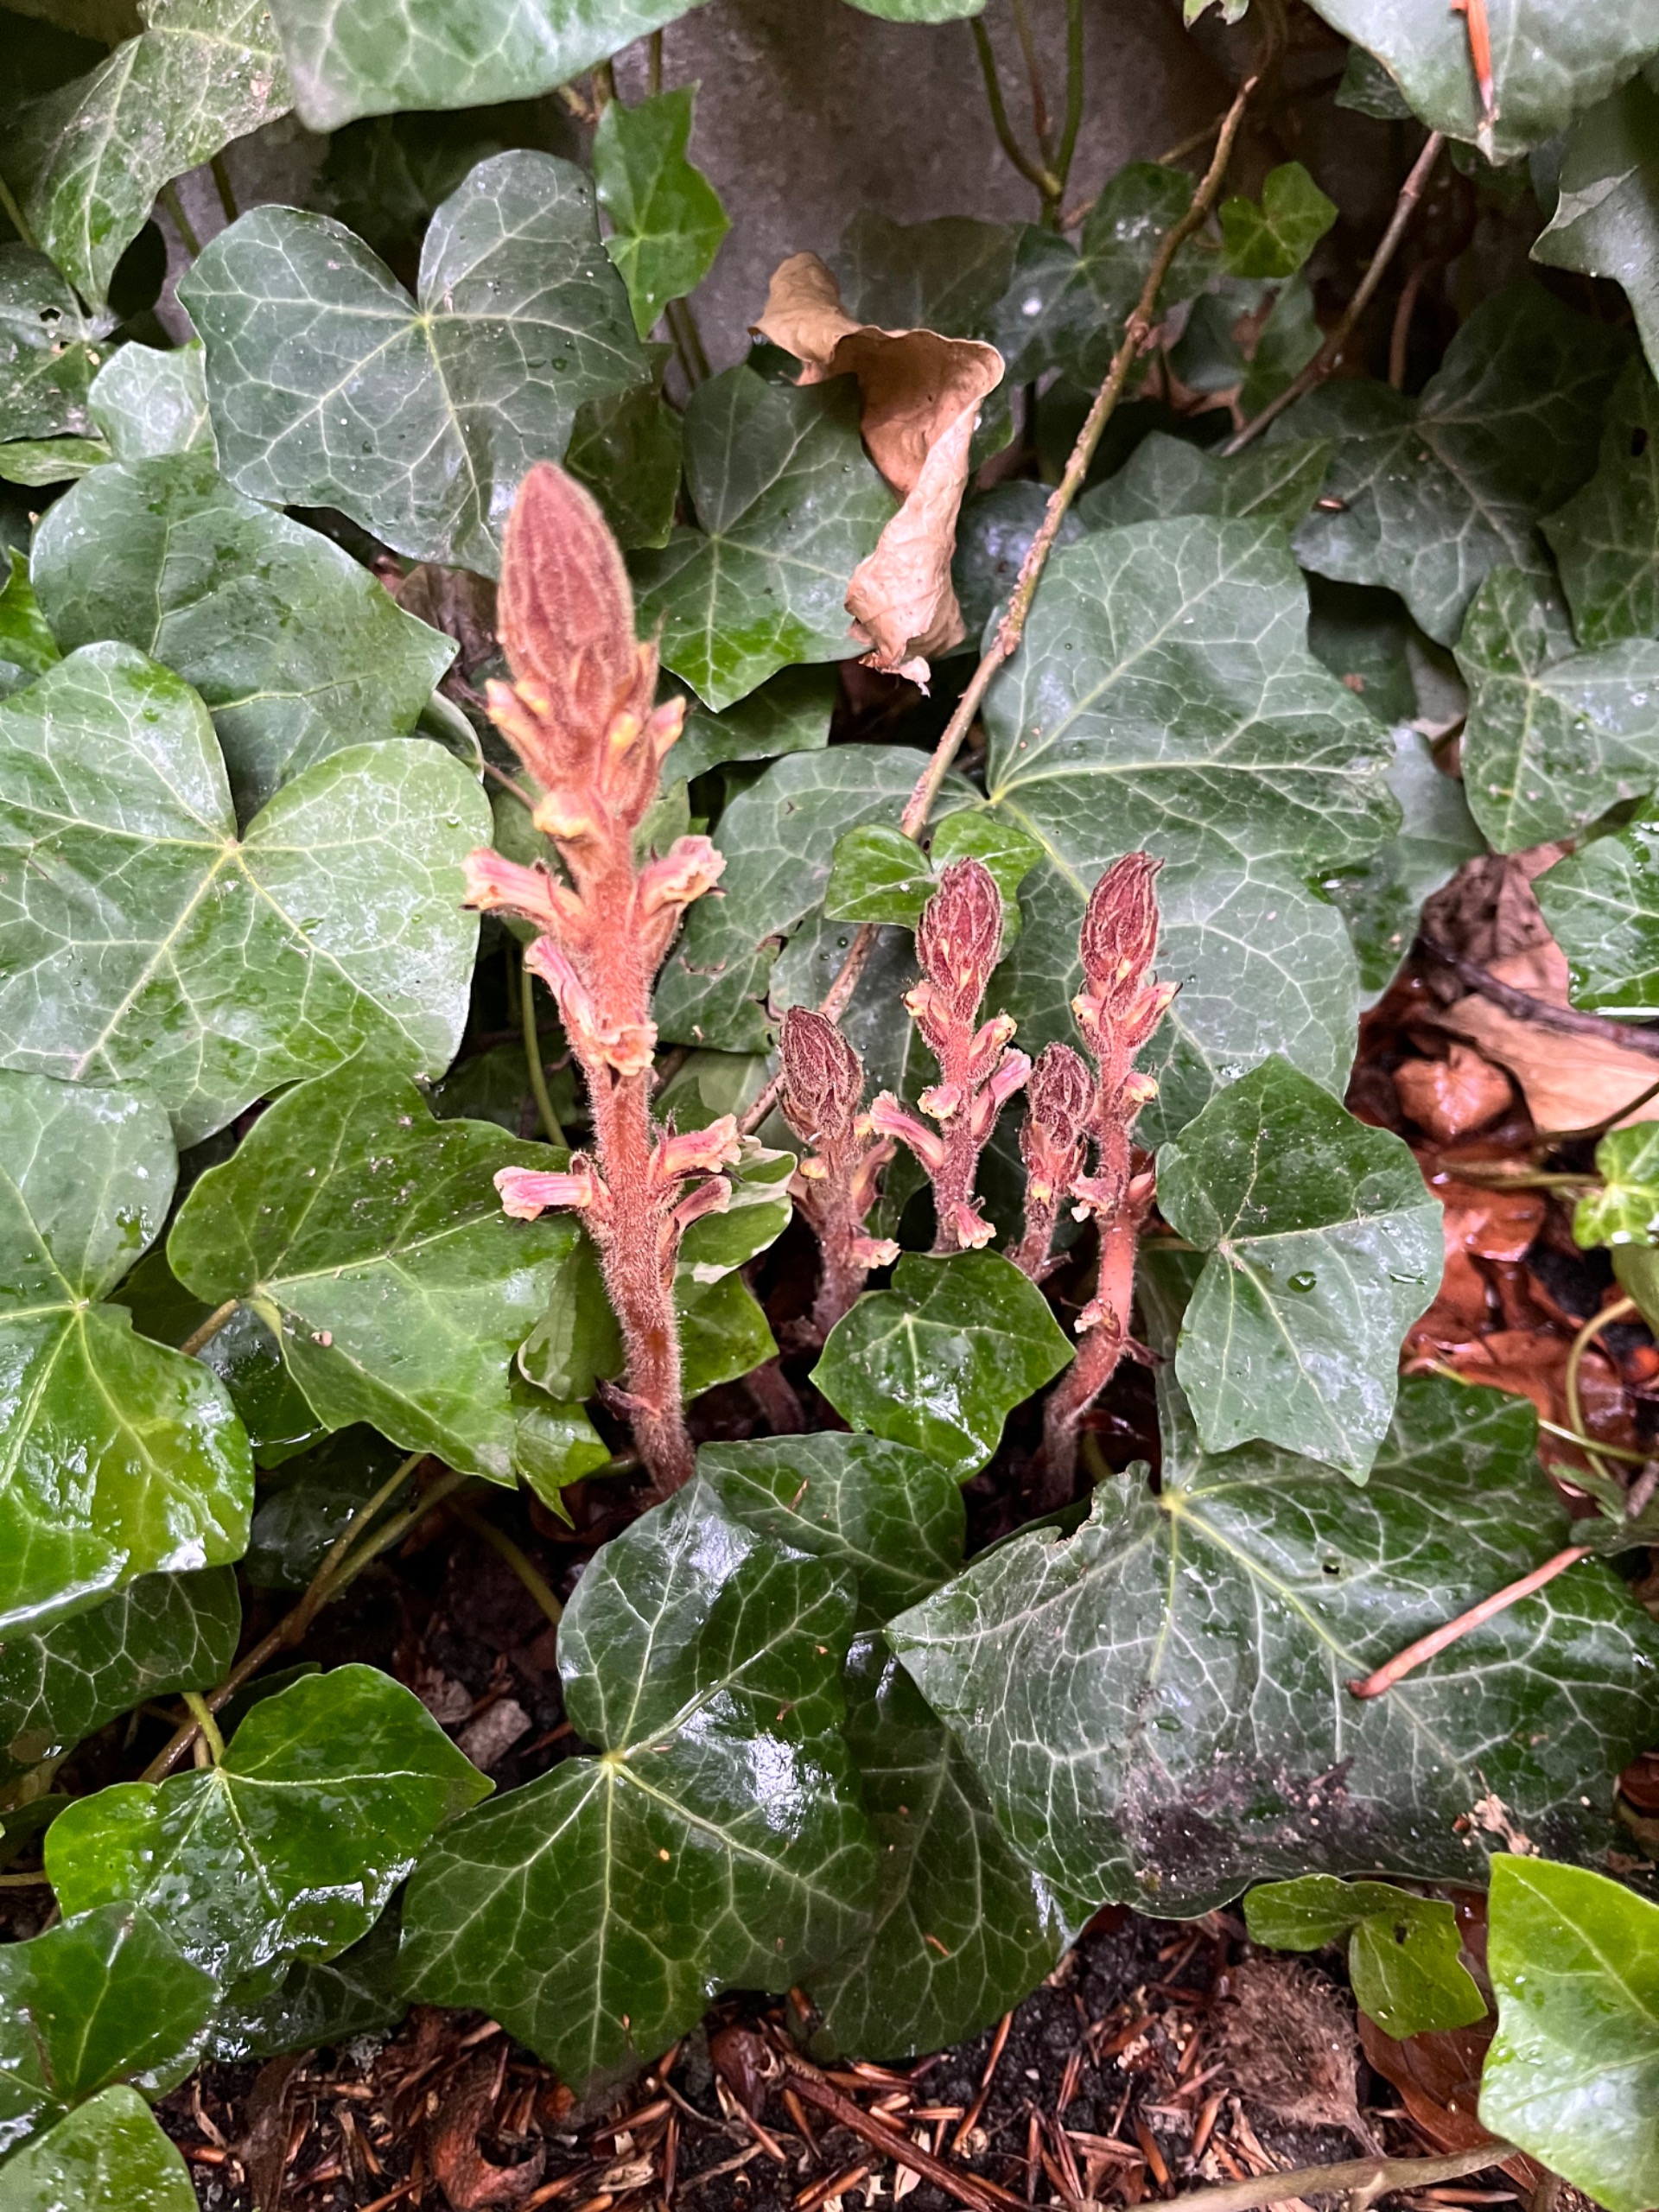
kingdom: Plantae
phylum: Tracheophyta
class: Magnoliopsida
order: Lamiales
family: Orobanchaceae
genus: Orobanche
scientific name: Orobanche hederae
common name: Vedbend-gyvelkvæler
